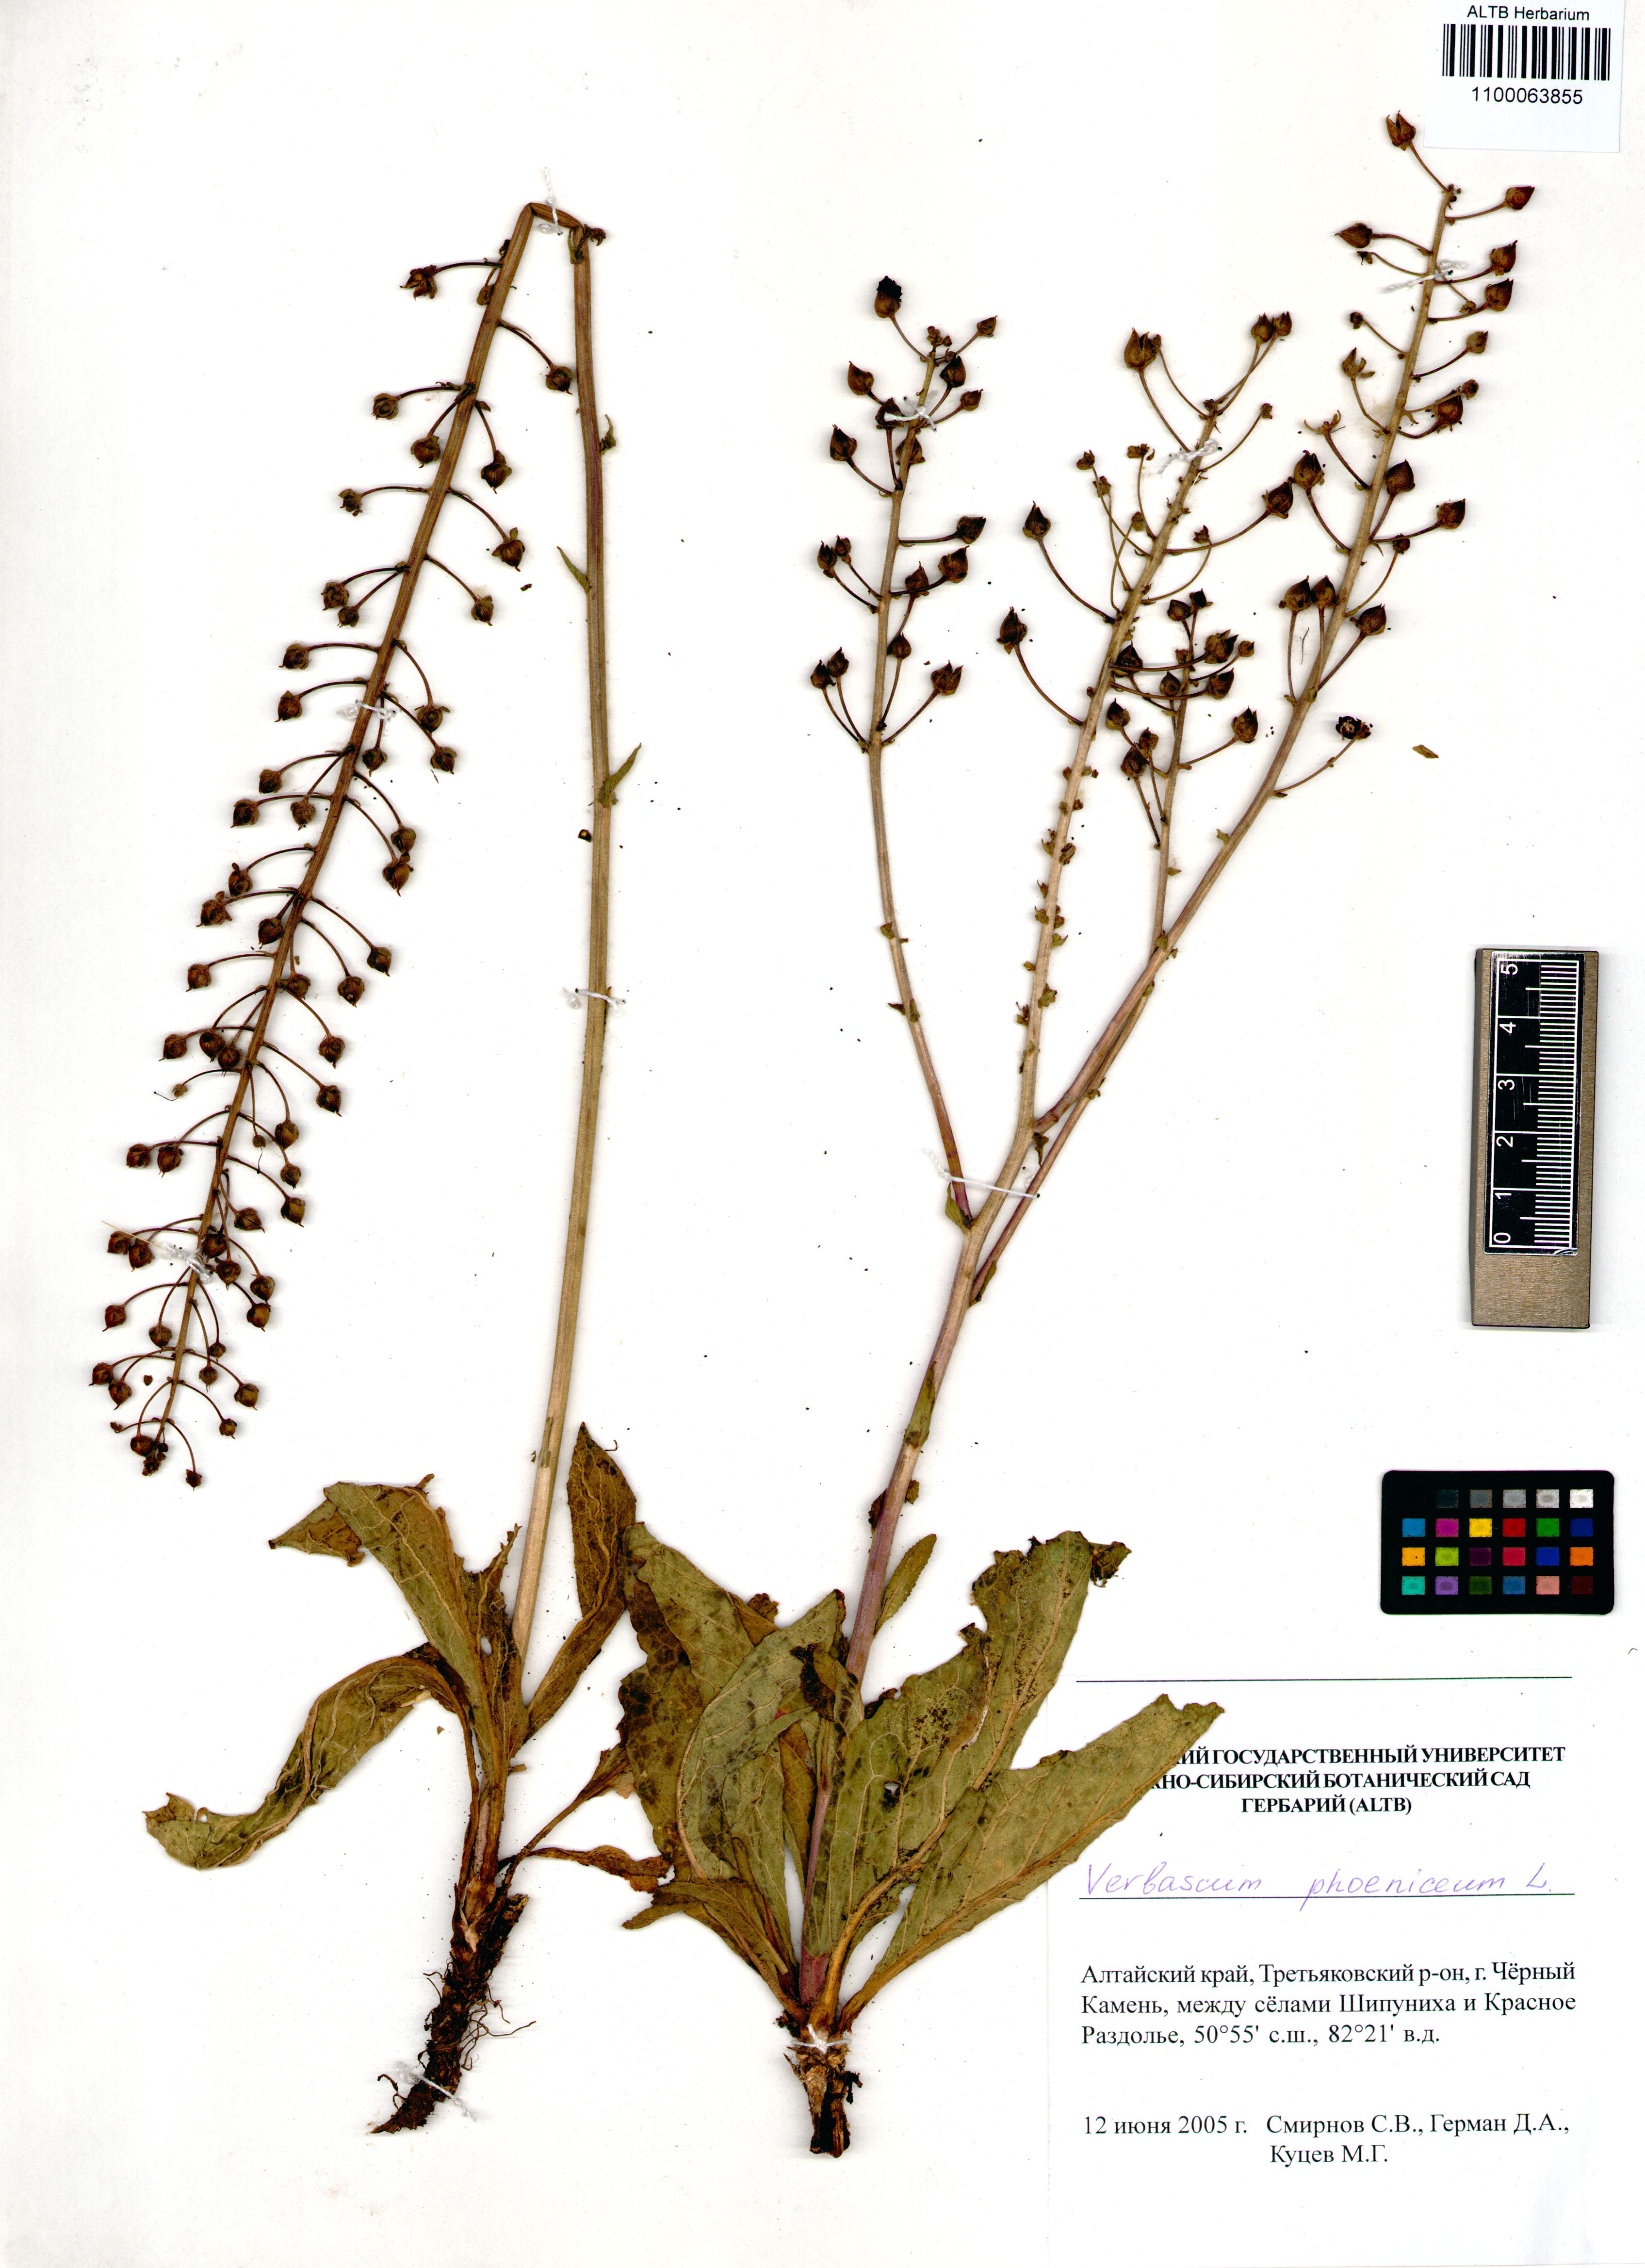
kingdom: Plantae
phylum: Tracheophyta
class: Magnoliopsida
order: Lamiales
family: Scrophulariaceae
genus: Verbascum
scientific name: Verbascum phoeniceum
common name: Purple mullein
